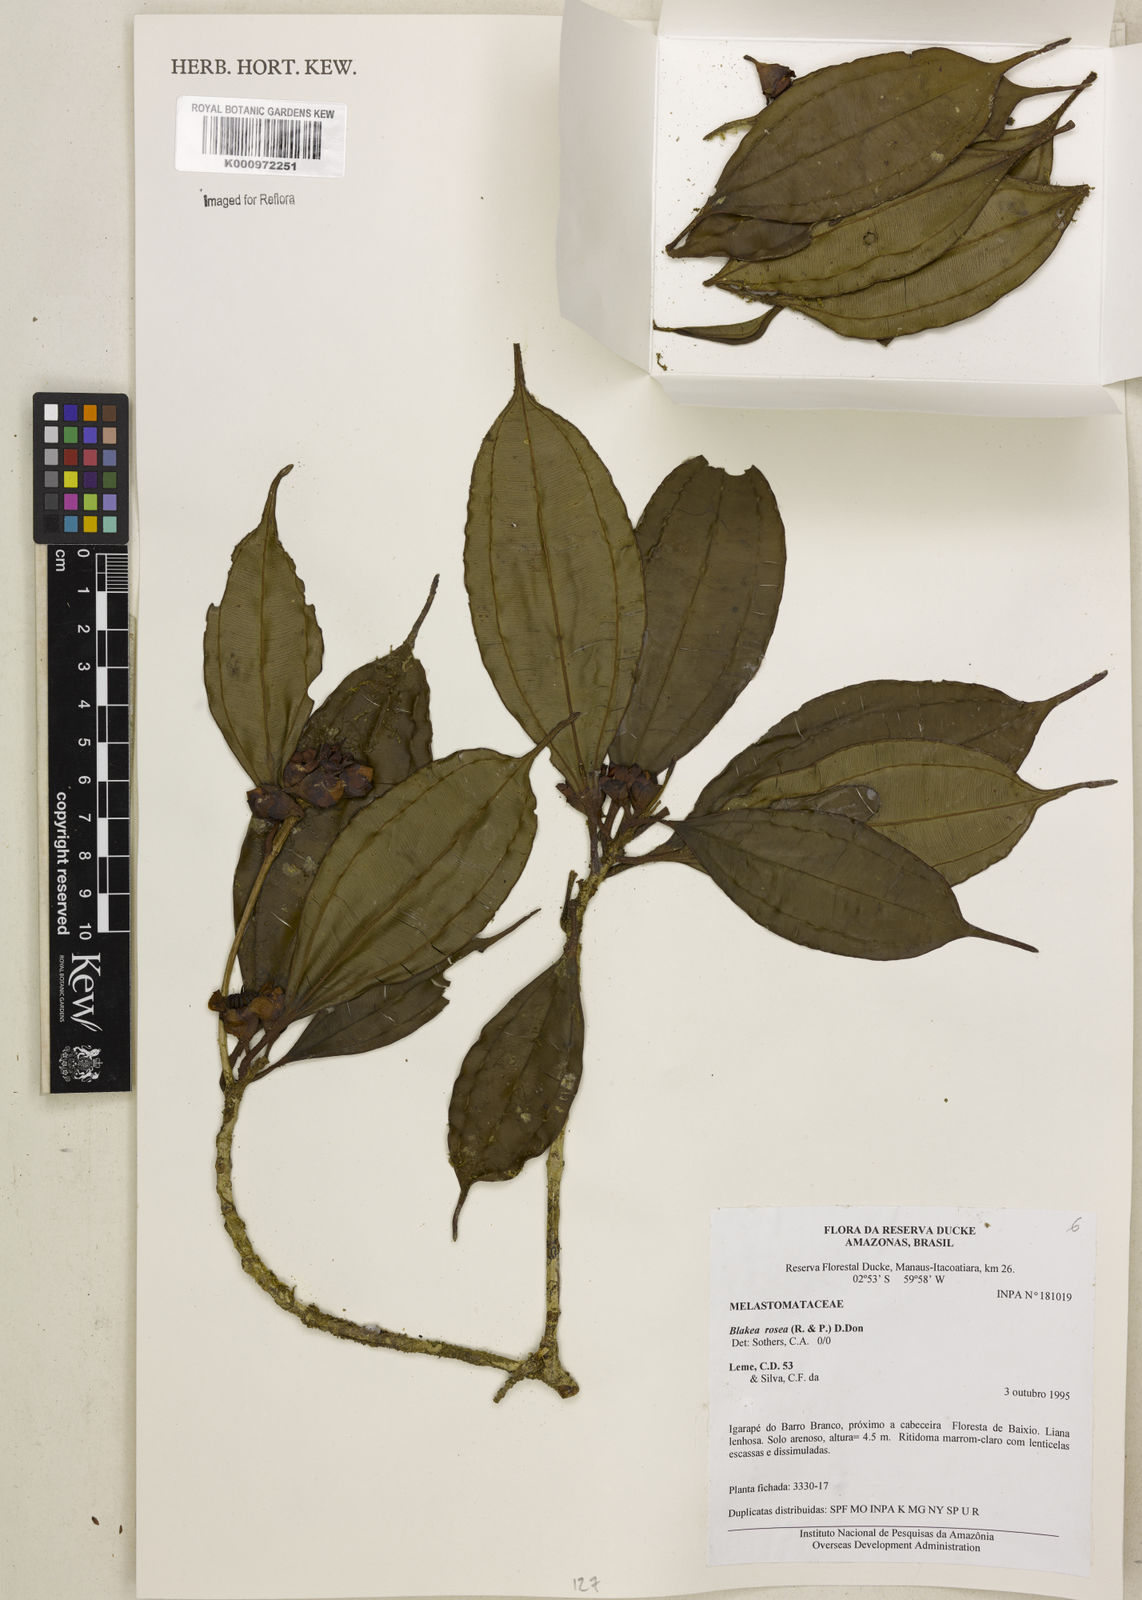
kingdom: Plantae
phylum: Tracheophyta
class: Magnoliopsida
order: Myrtales
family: Melastomataceae
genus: Blakea
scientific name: Blakea rosea
